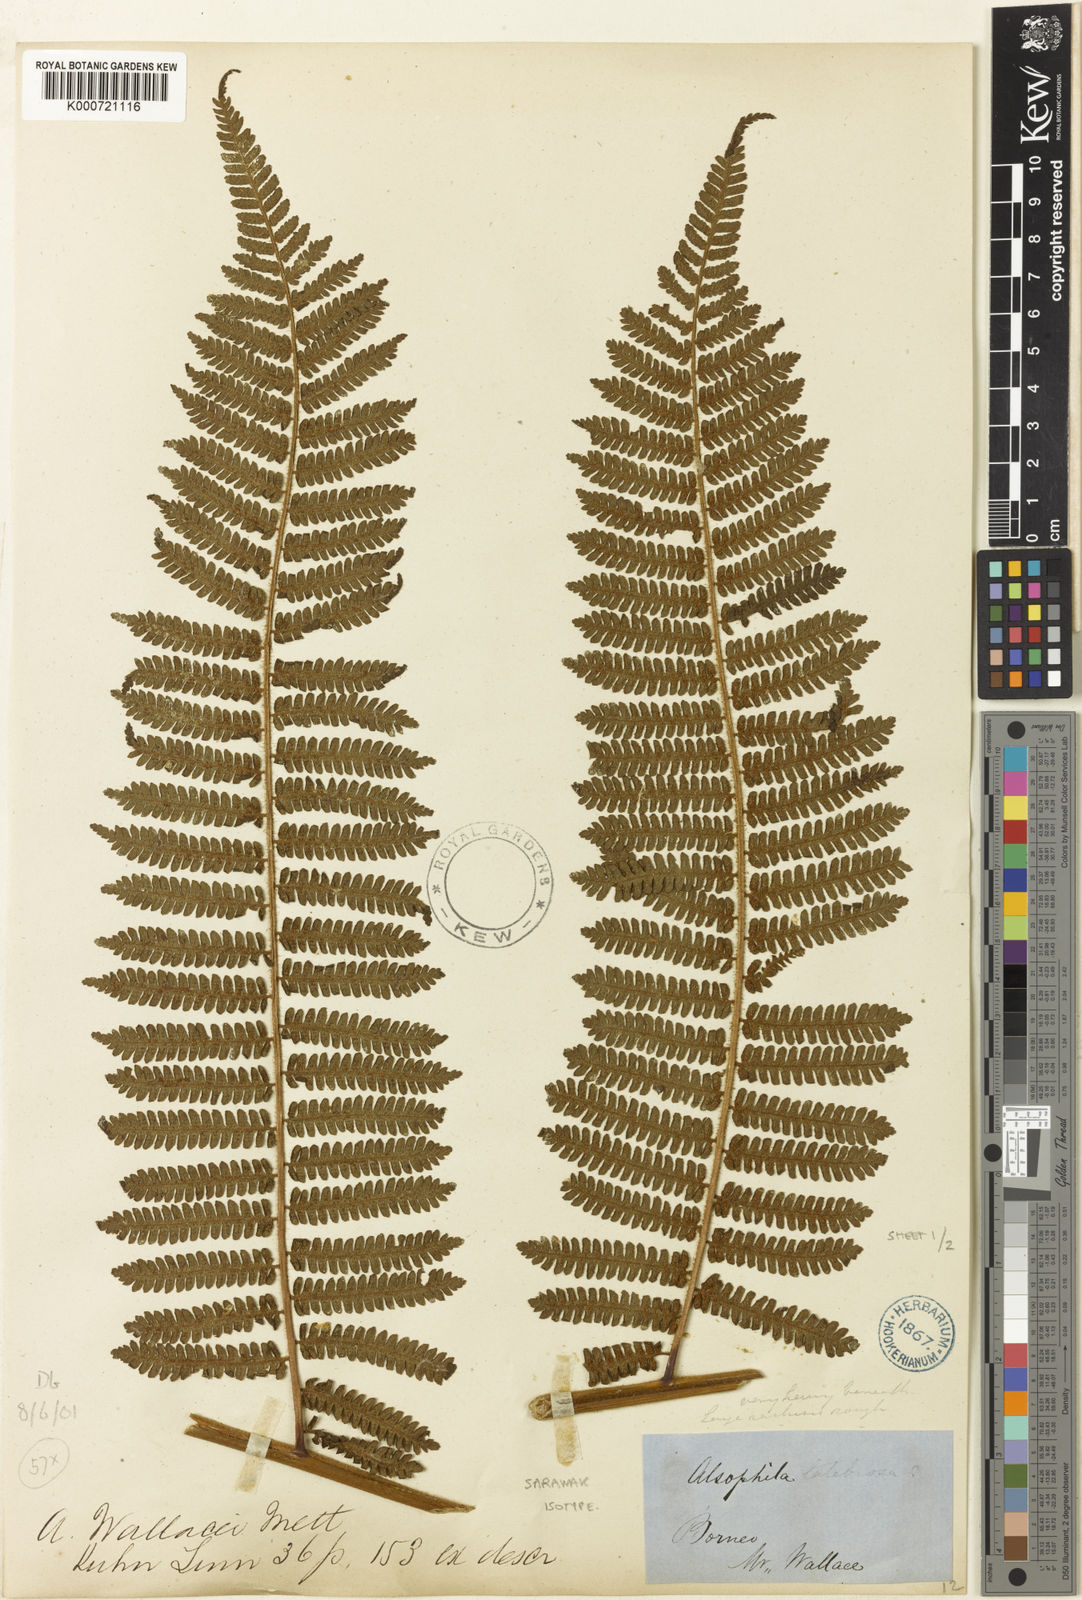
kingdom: Plantae
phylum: Tracheophyta
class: Polypodiopsida
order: Cyatheales
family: Cyatheaceae
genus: Sphaeropteris
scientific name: Sphaeropteris wallacei
